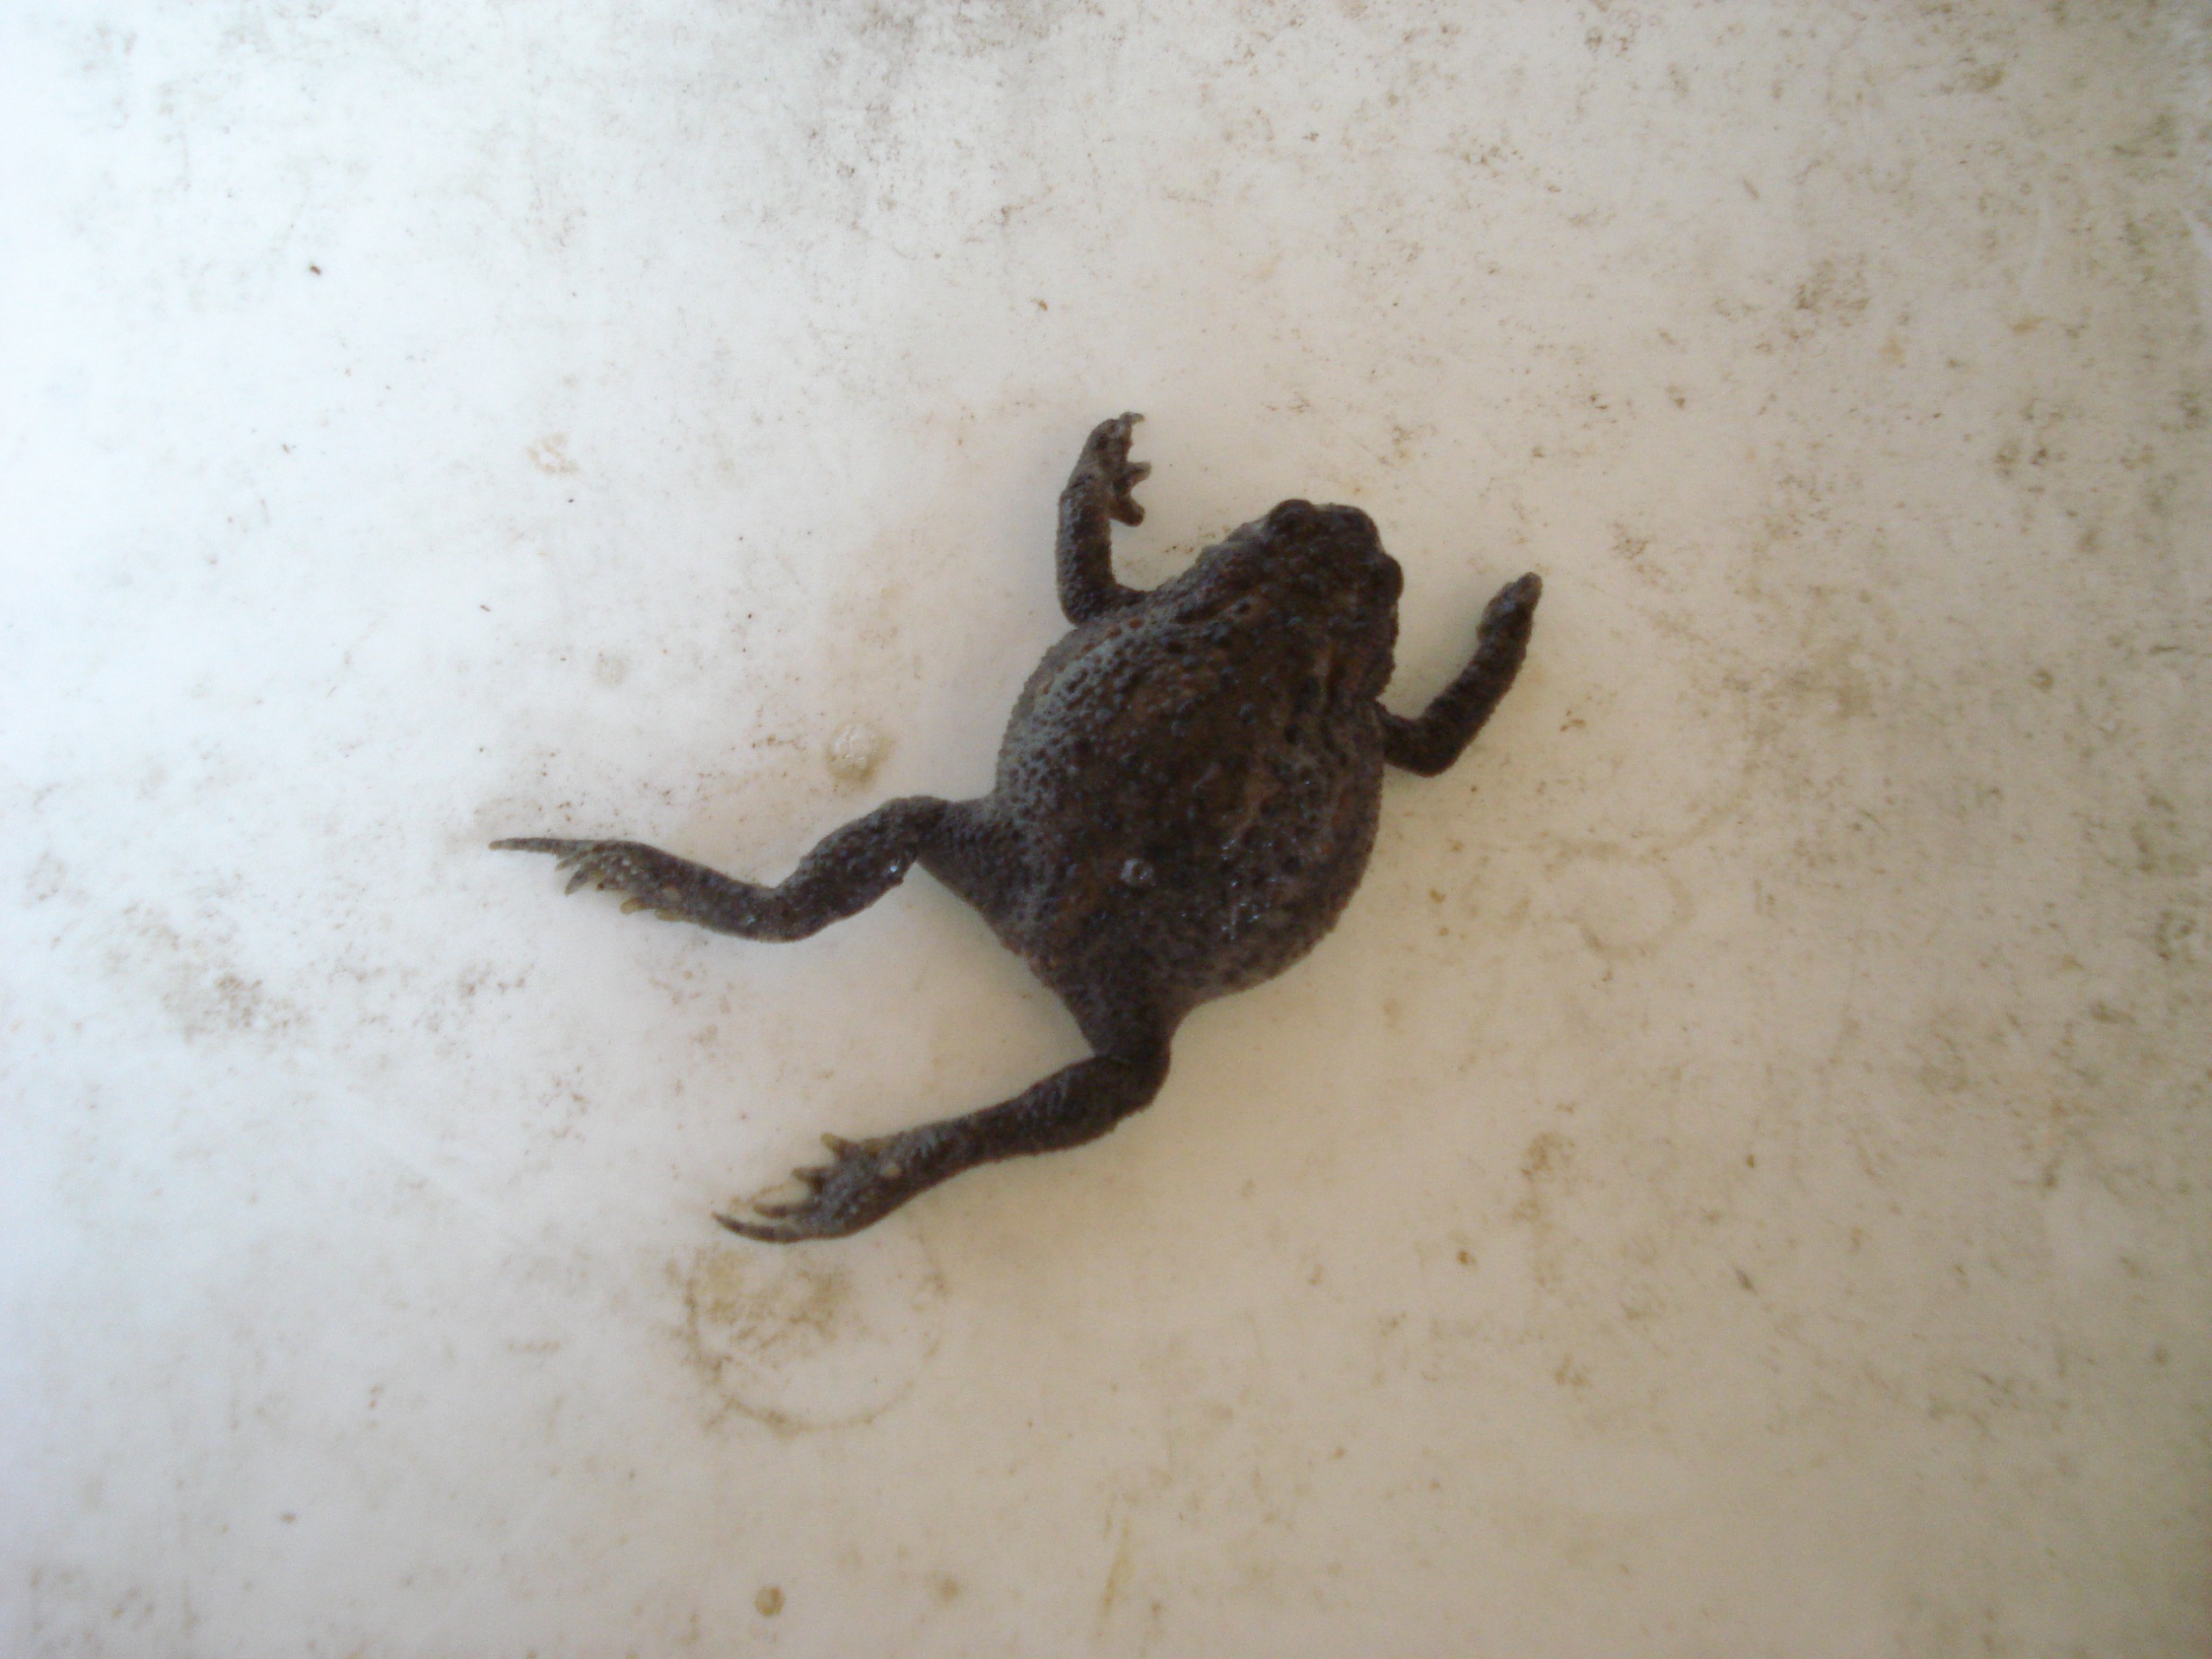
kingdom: Animalia
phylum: Chordata
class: Amphibia
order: Anura
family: Bufonidae
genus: Bufo
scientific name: Bufo bufo
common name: Skrubtudse
